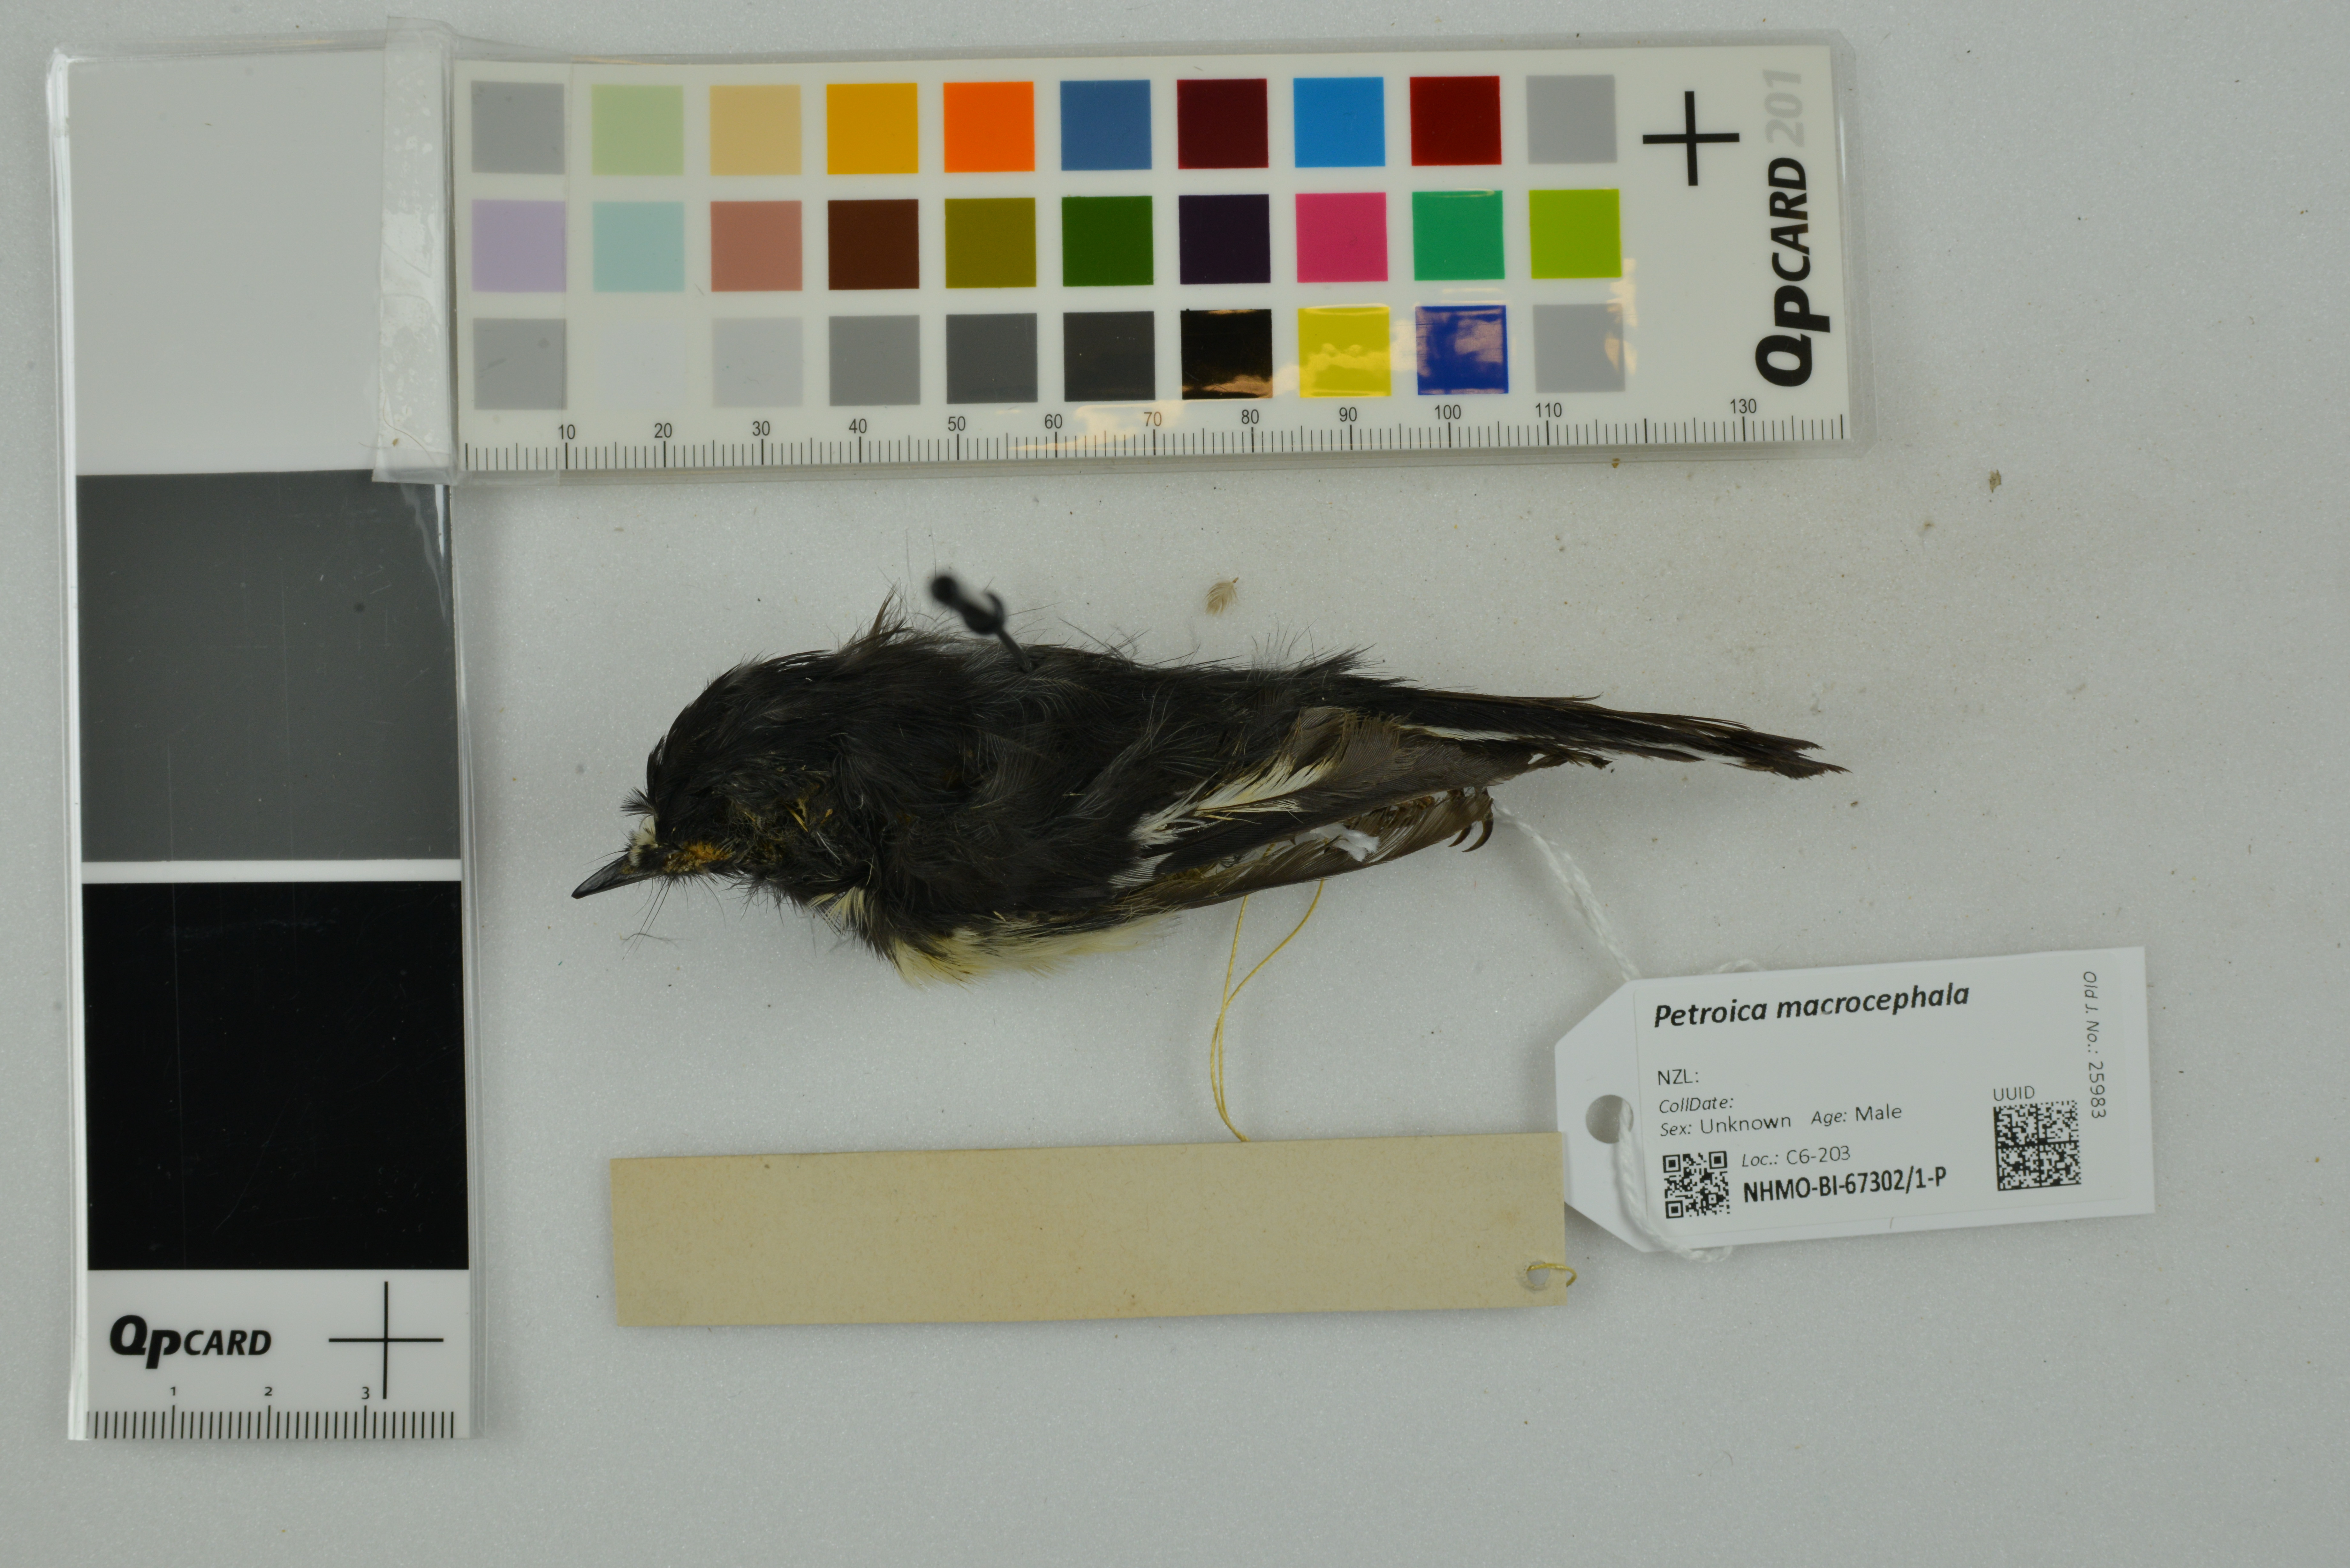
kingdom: Animalia
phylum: Chordata
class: Aves
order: Passeriformes
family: Petroicidae
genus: Petroica
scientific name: Petroica macrocephala
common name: Tomtit
